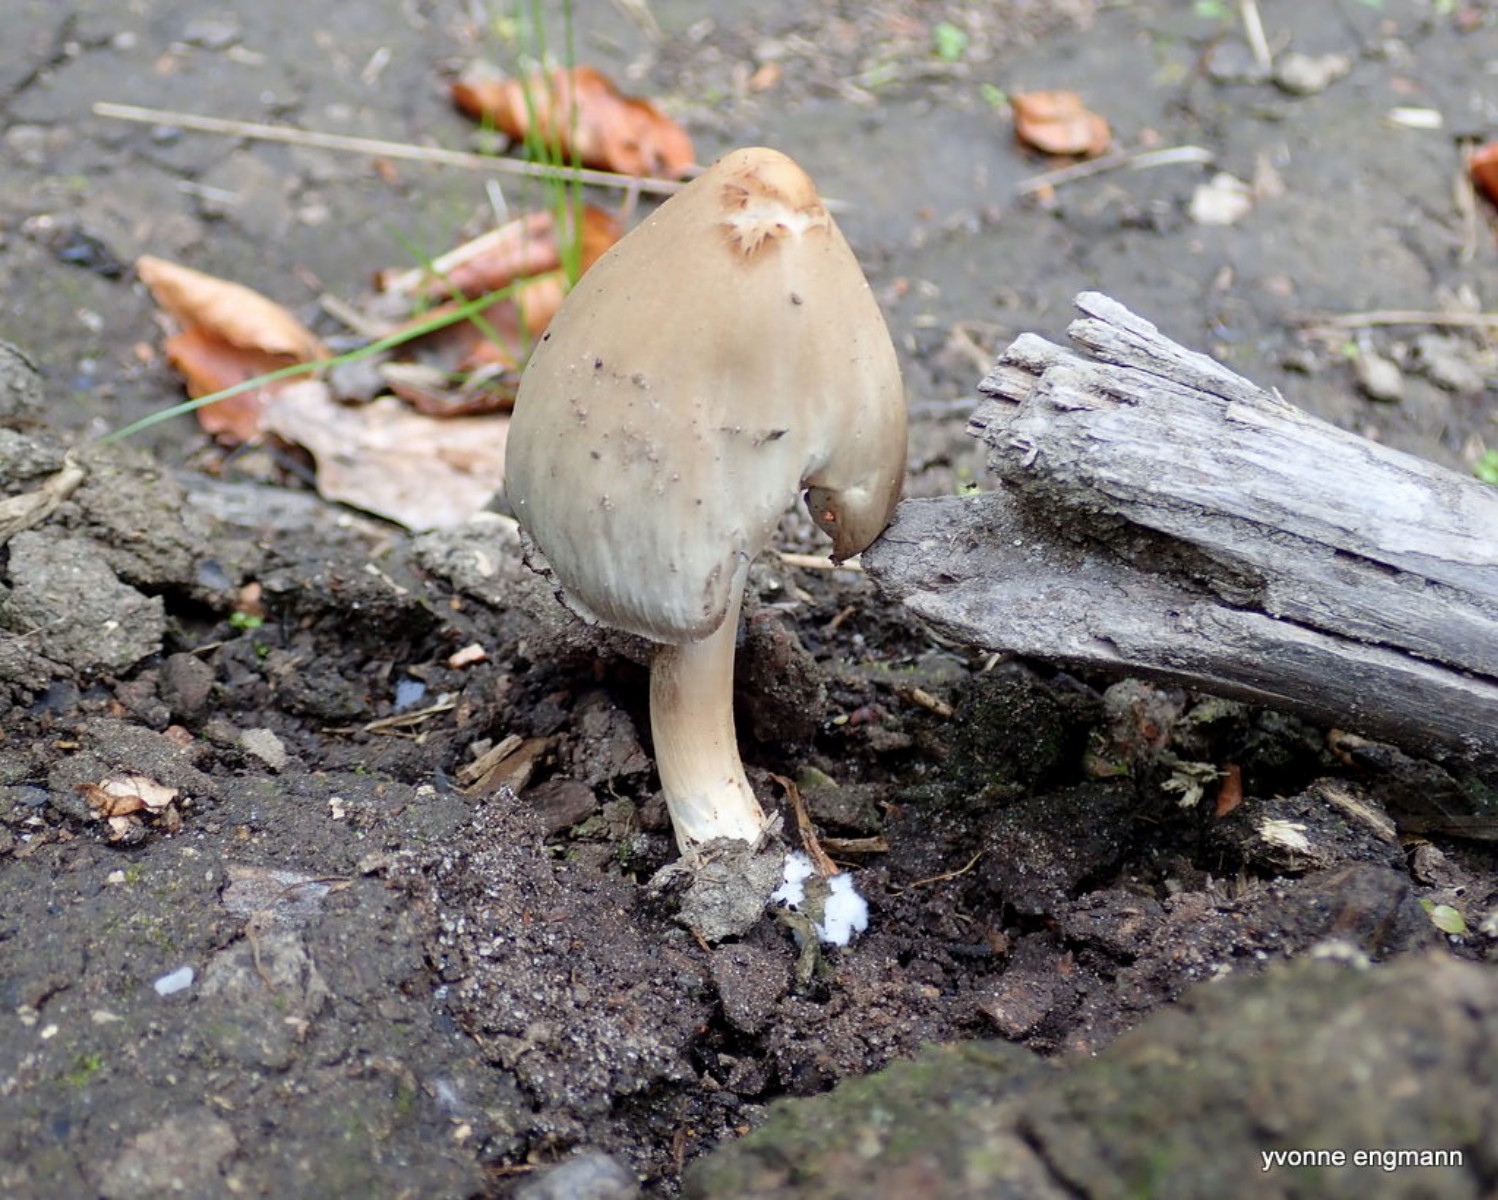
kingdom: Fungi
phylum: Basidiomycota
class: Agaricomycetes
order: Agaricales
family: Psathyrellaceae
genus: Coprinopsis
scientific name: Coprinopsis
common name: blækhat
